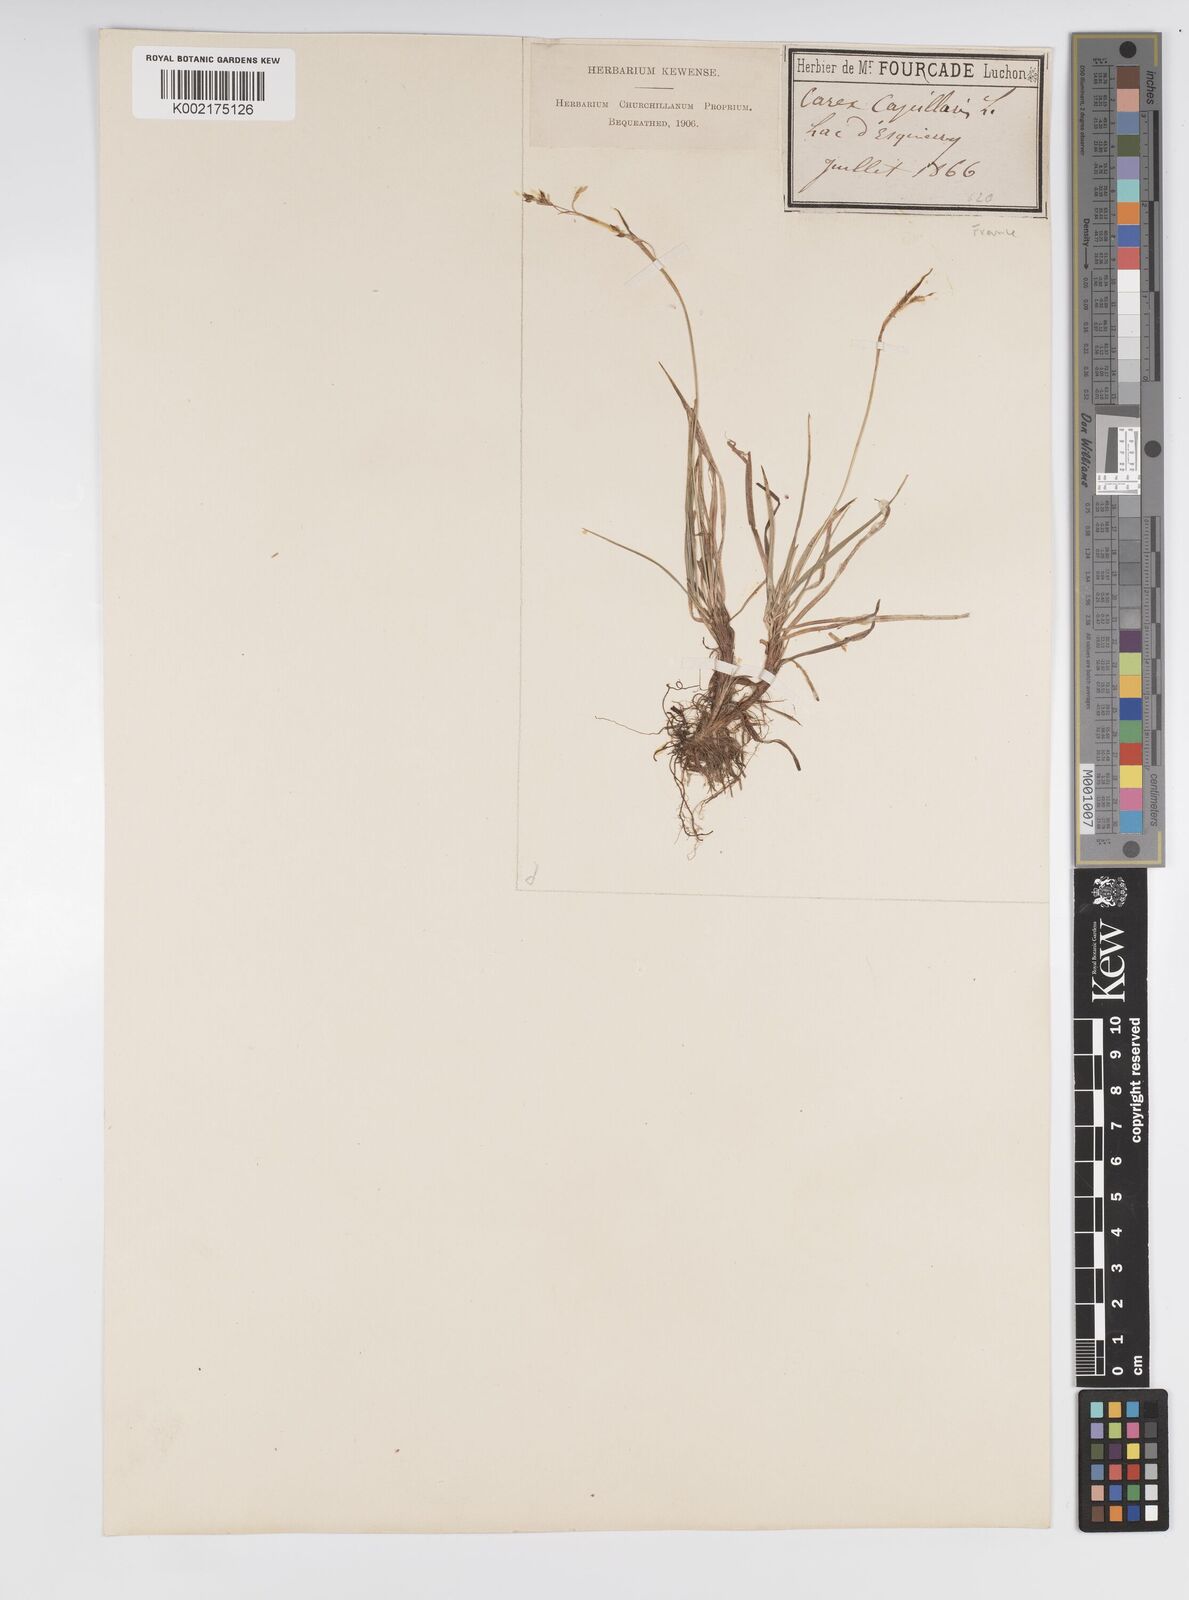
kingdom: Plantae
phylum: Tracheophyta
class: Liliopsida
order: Poales
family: Cyperaceae
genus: Carex
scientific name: Carex capillaris
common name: Hair sedge
